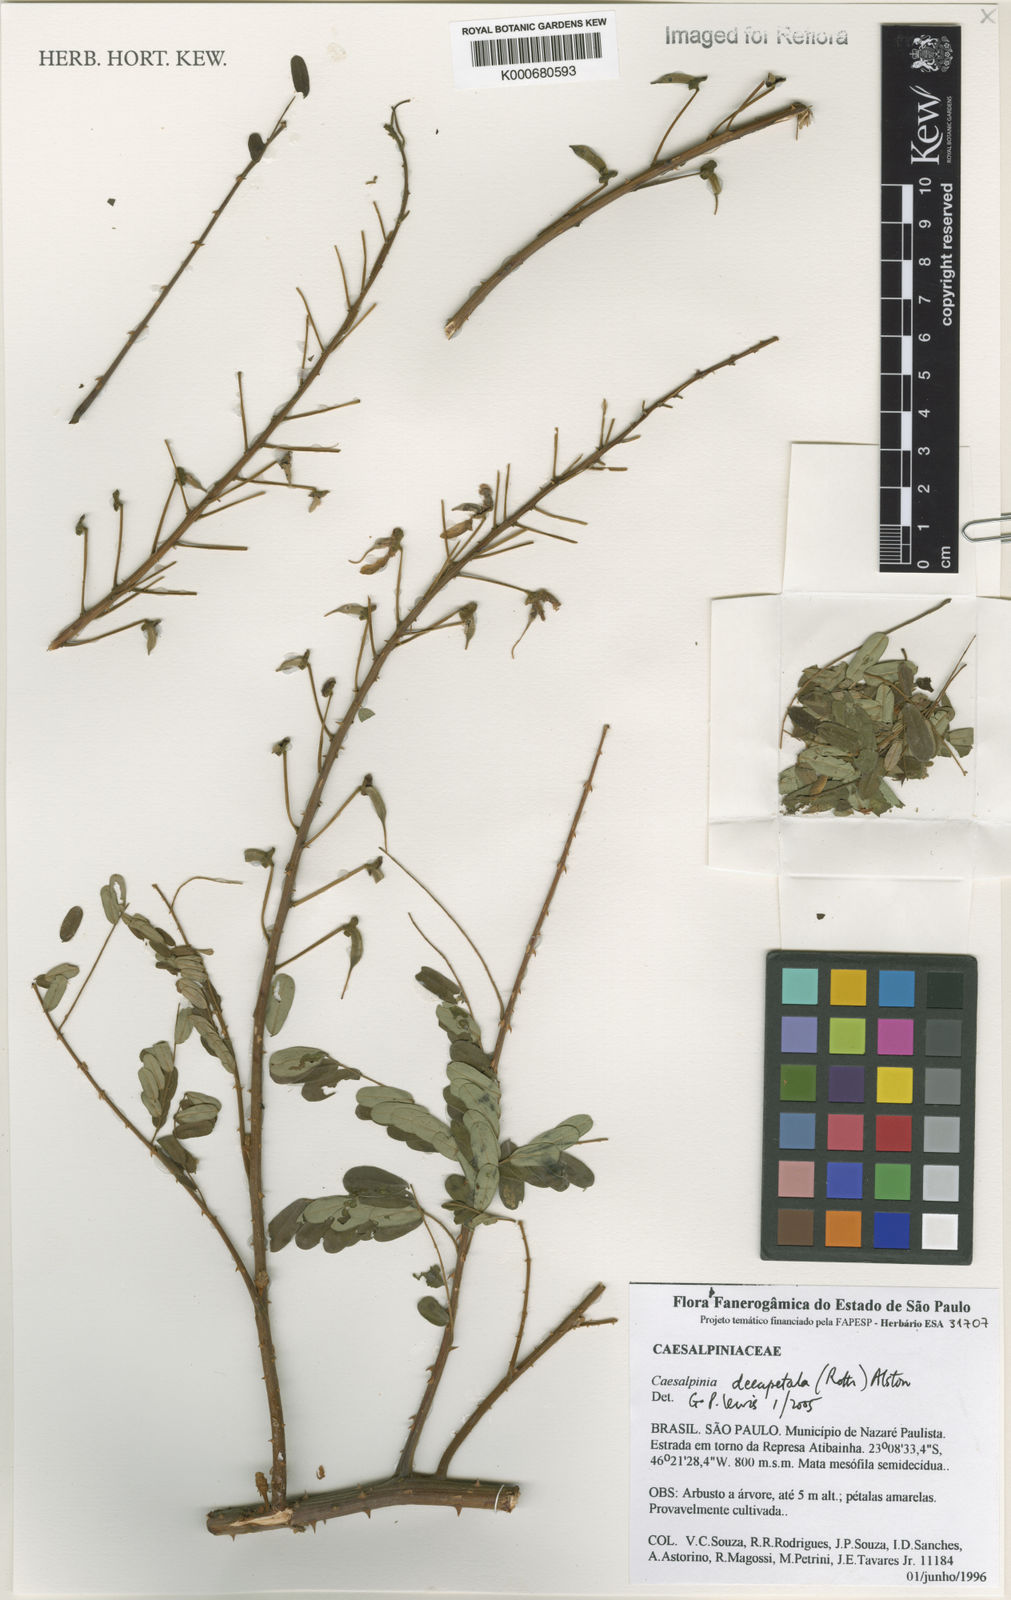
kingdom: Plantae
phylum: Tracheophyta
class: Magnoliopsida
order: Fabales
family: Fabaceae
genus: Biancaea
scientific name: Biancaea decapetala
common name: Cat's claw
